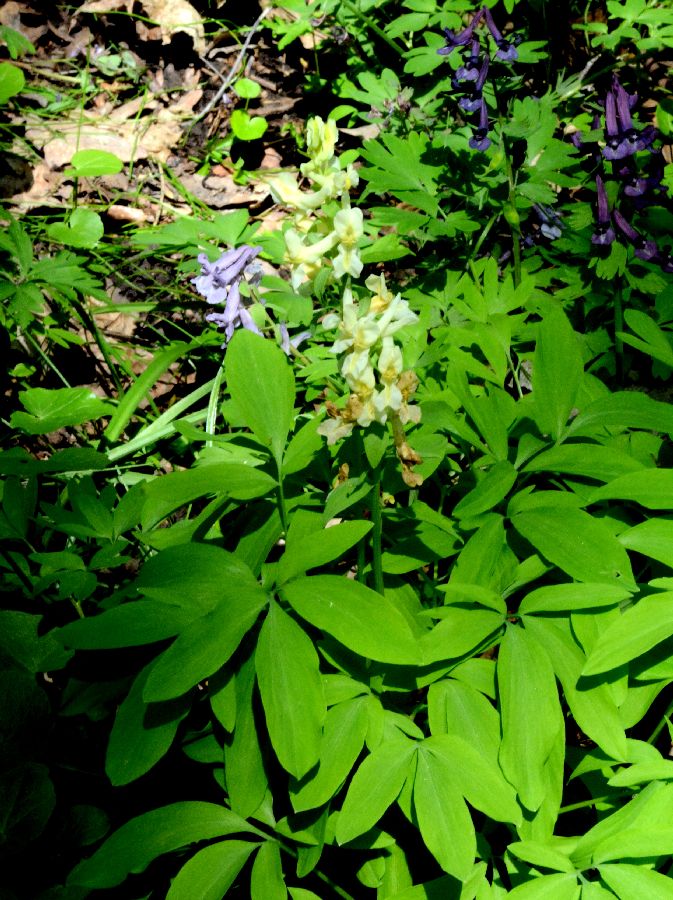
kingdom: Plantae
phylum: Tracheophyta
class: Magnoliopsida
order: Ranunculales
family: Papaveraceae
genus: Corydalis
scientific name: Corydalis cava
